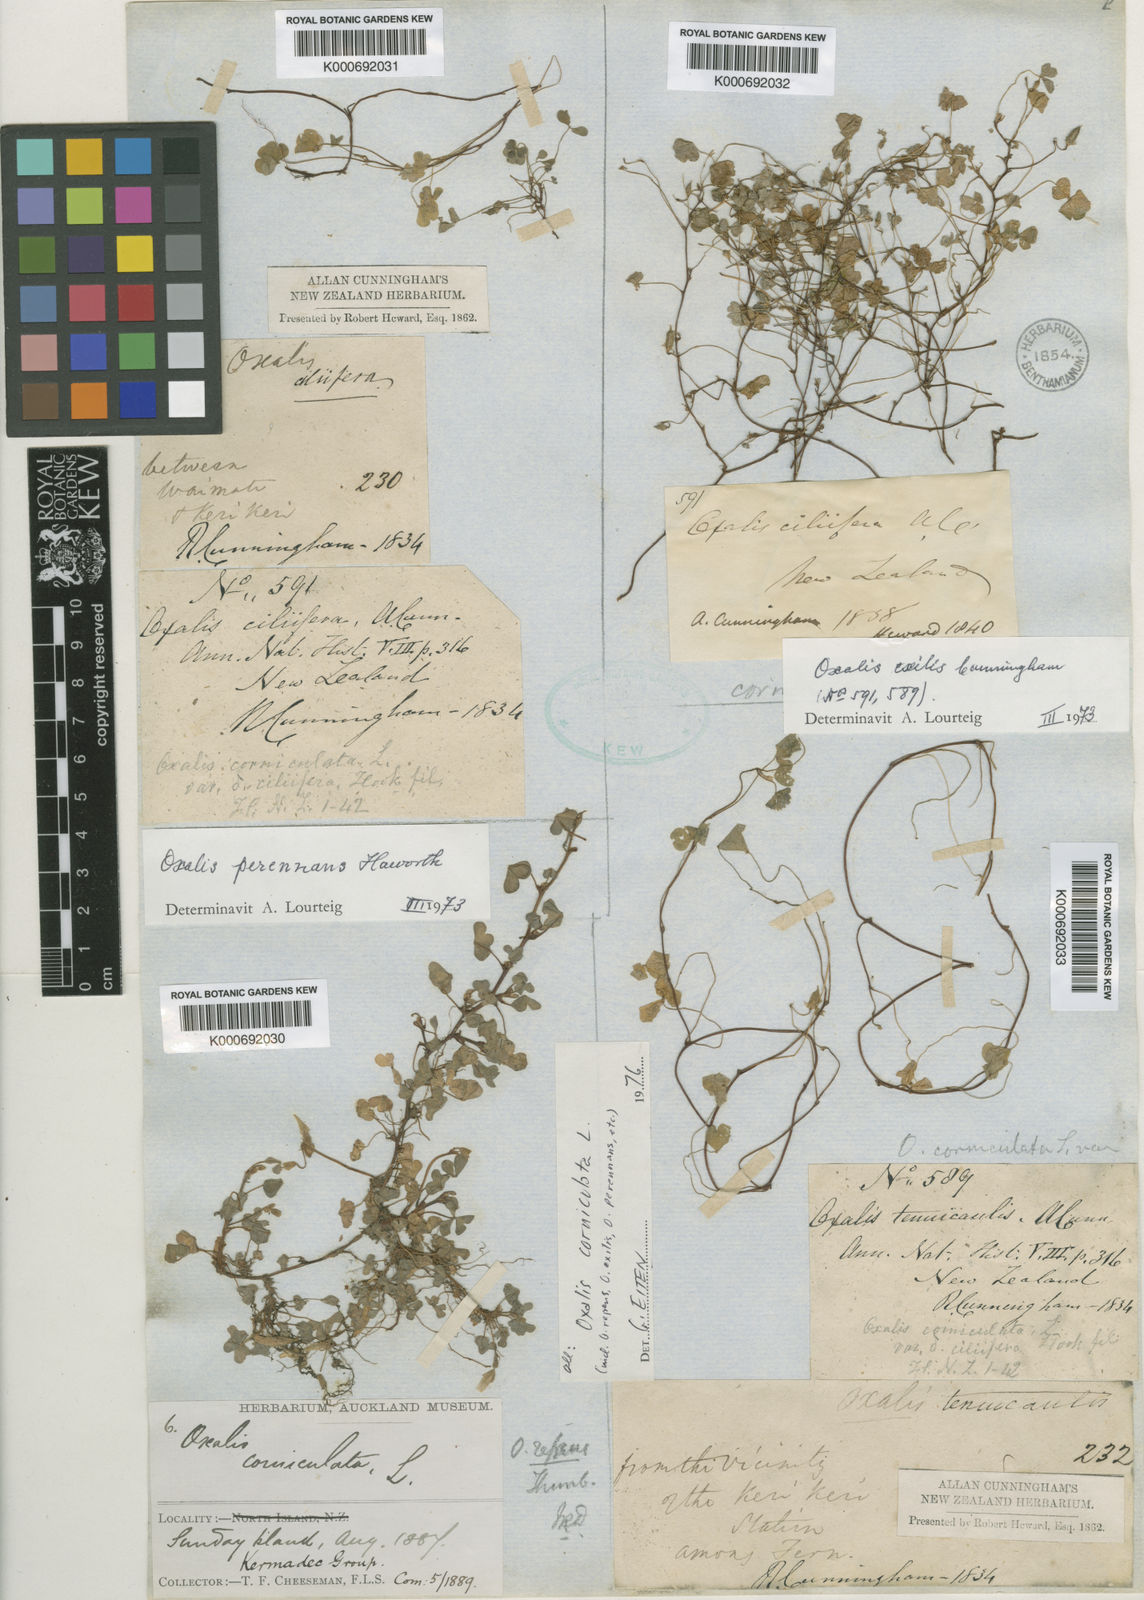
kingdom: Plantae
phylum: Tracheophyta
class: Magnoliopsida
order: Oxalidales
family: Oxalidaceae
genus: Oxalis
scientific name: Oxalis corniculata
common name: Procumbent yellow-sorrel
